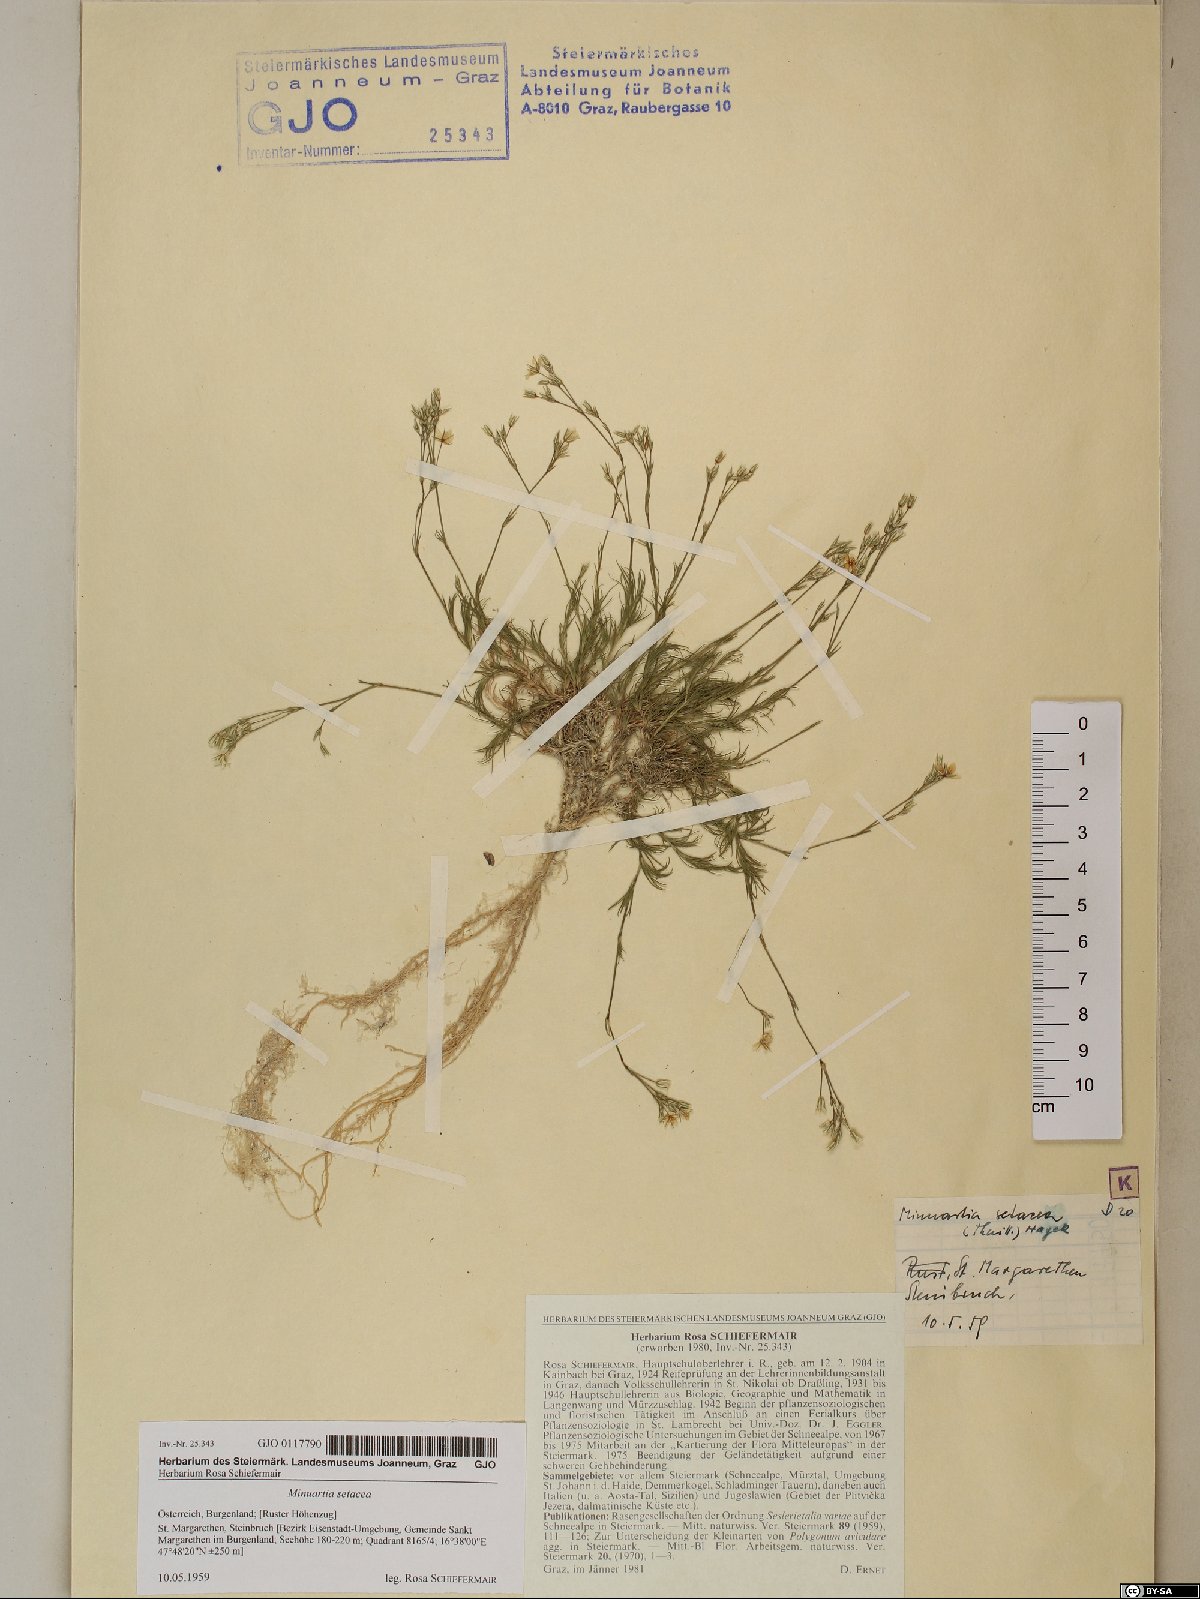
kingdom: Plantae
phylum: Tracheophyta
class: Magnoliopsida
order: Caryophyllales
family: Caryophyllaceae
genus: Minuartia
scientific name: Minuartia setacea
